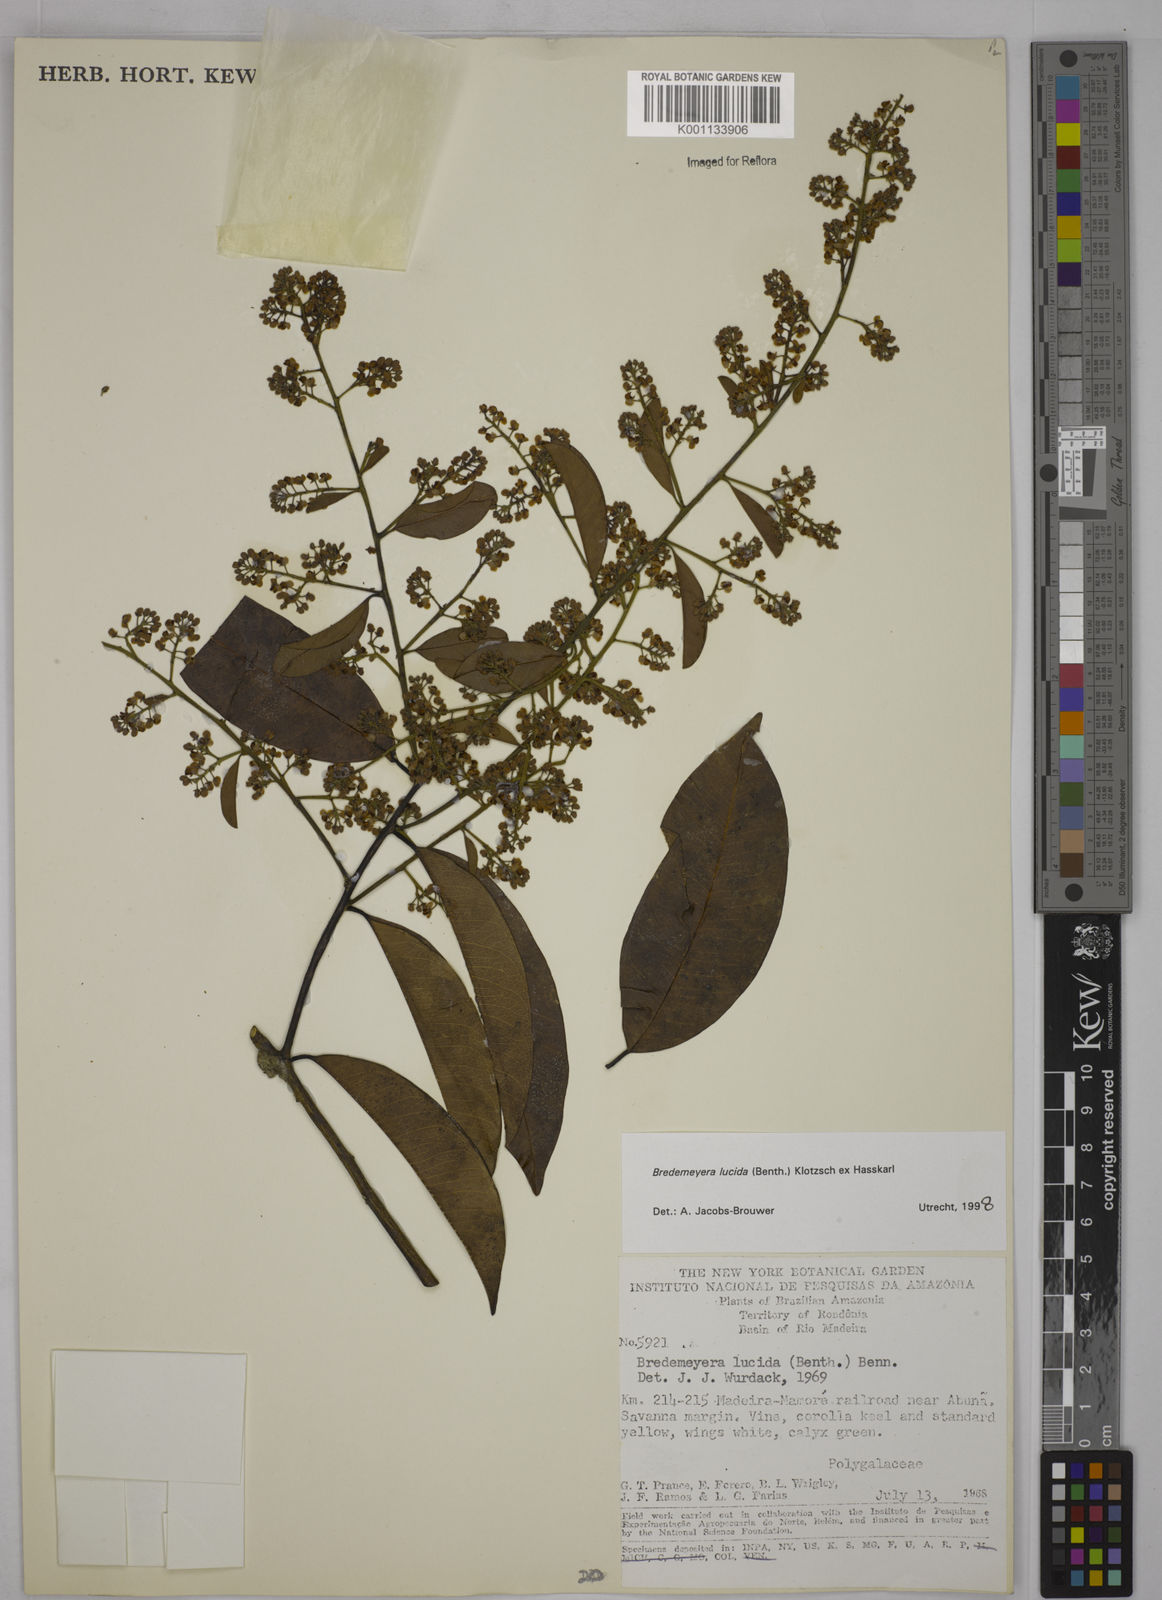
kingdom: Plantae
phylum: Tracheophyta
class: Magnoliopsida
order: Fabales
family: Polygalaceae
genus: Bredemeyera
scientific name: Bredemeyera lucida
